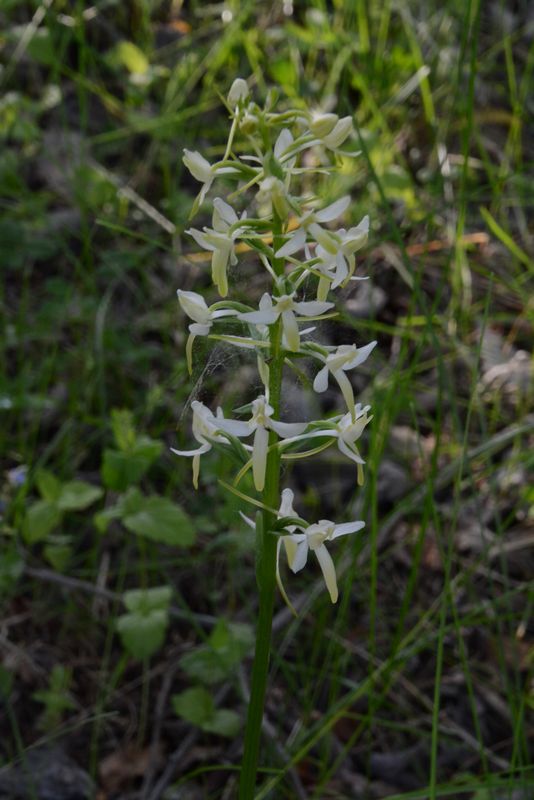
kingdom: Plantae
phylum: Tracheophyta
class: Liliopsida
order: Asparagales
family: Orchidaceae
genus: Platanthera
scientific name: Platanthera bifolia
